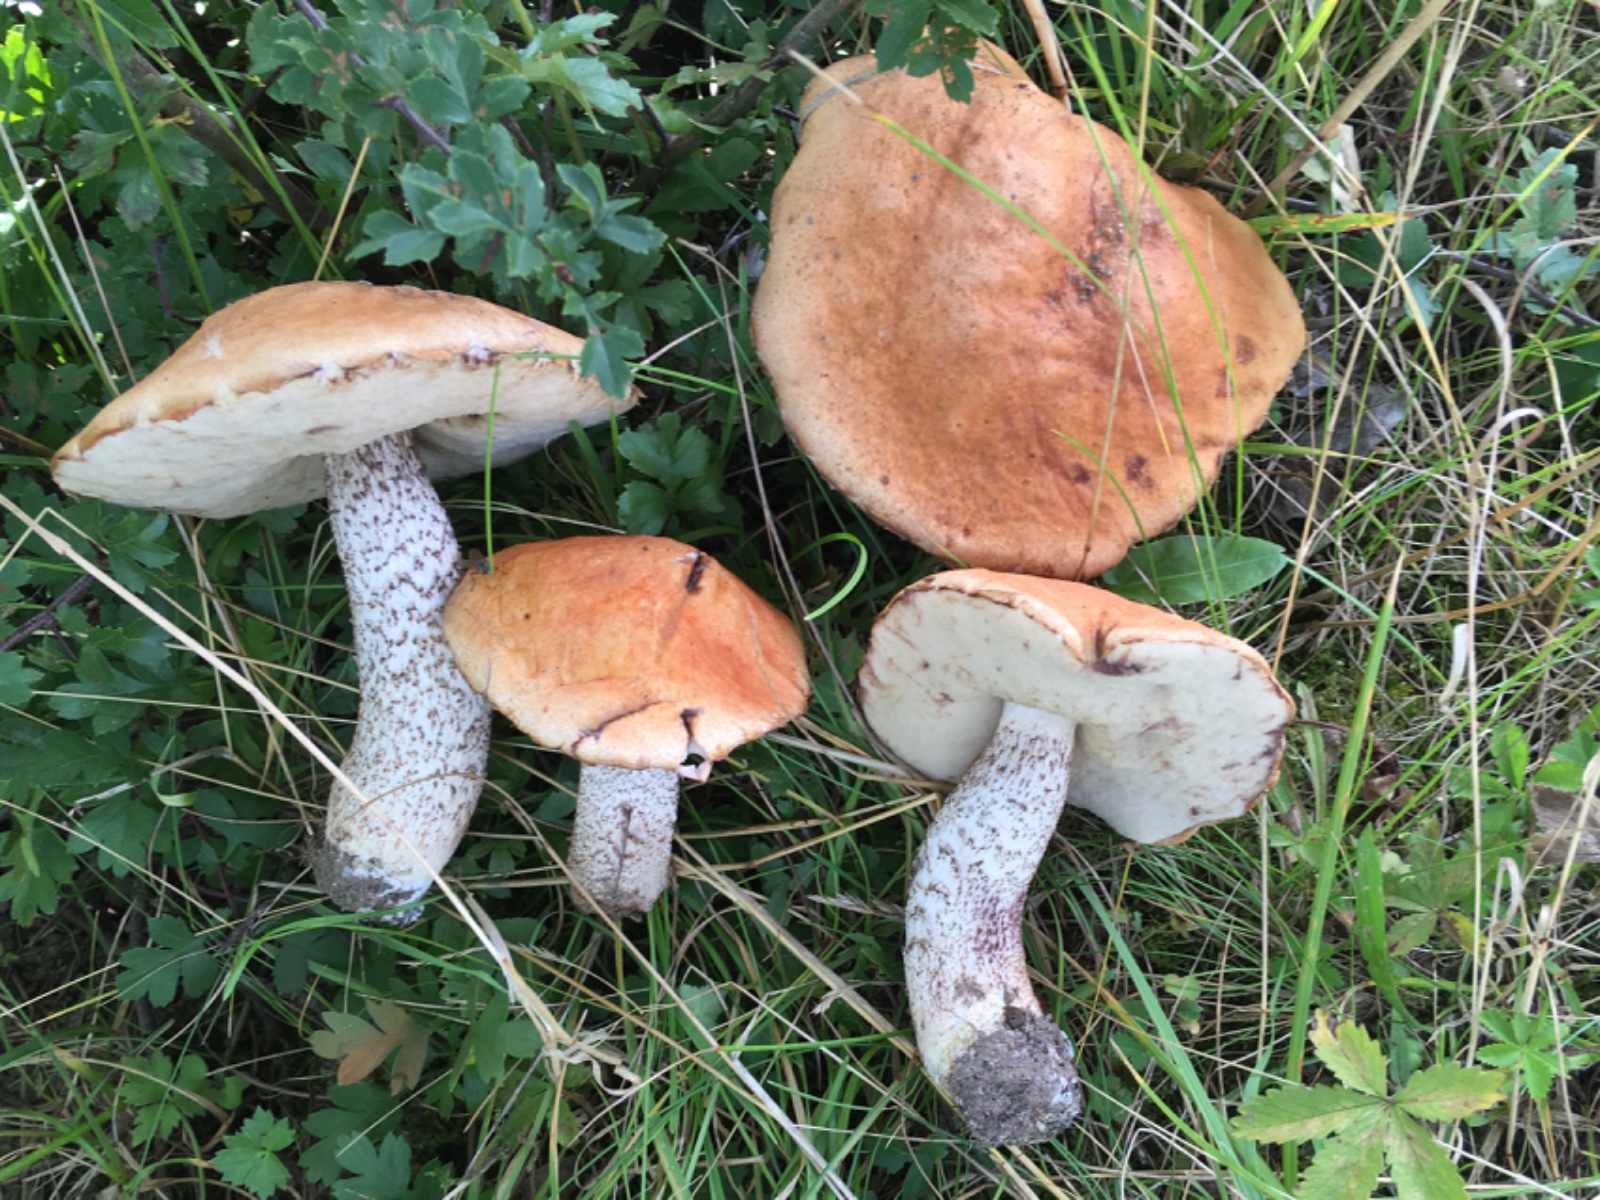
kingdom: Fungi
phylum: Basidiomycota
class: Agaricomycetes
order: Boletales
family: Boletaceae
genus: Leccinum
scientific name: Leccinum albostipitatum
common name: aspe-skælrørhat
